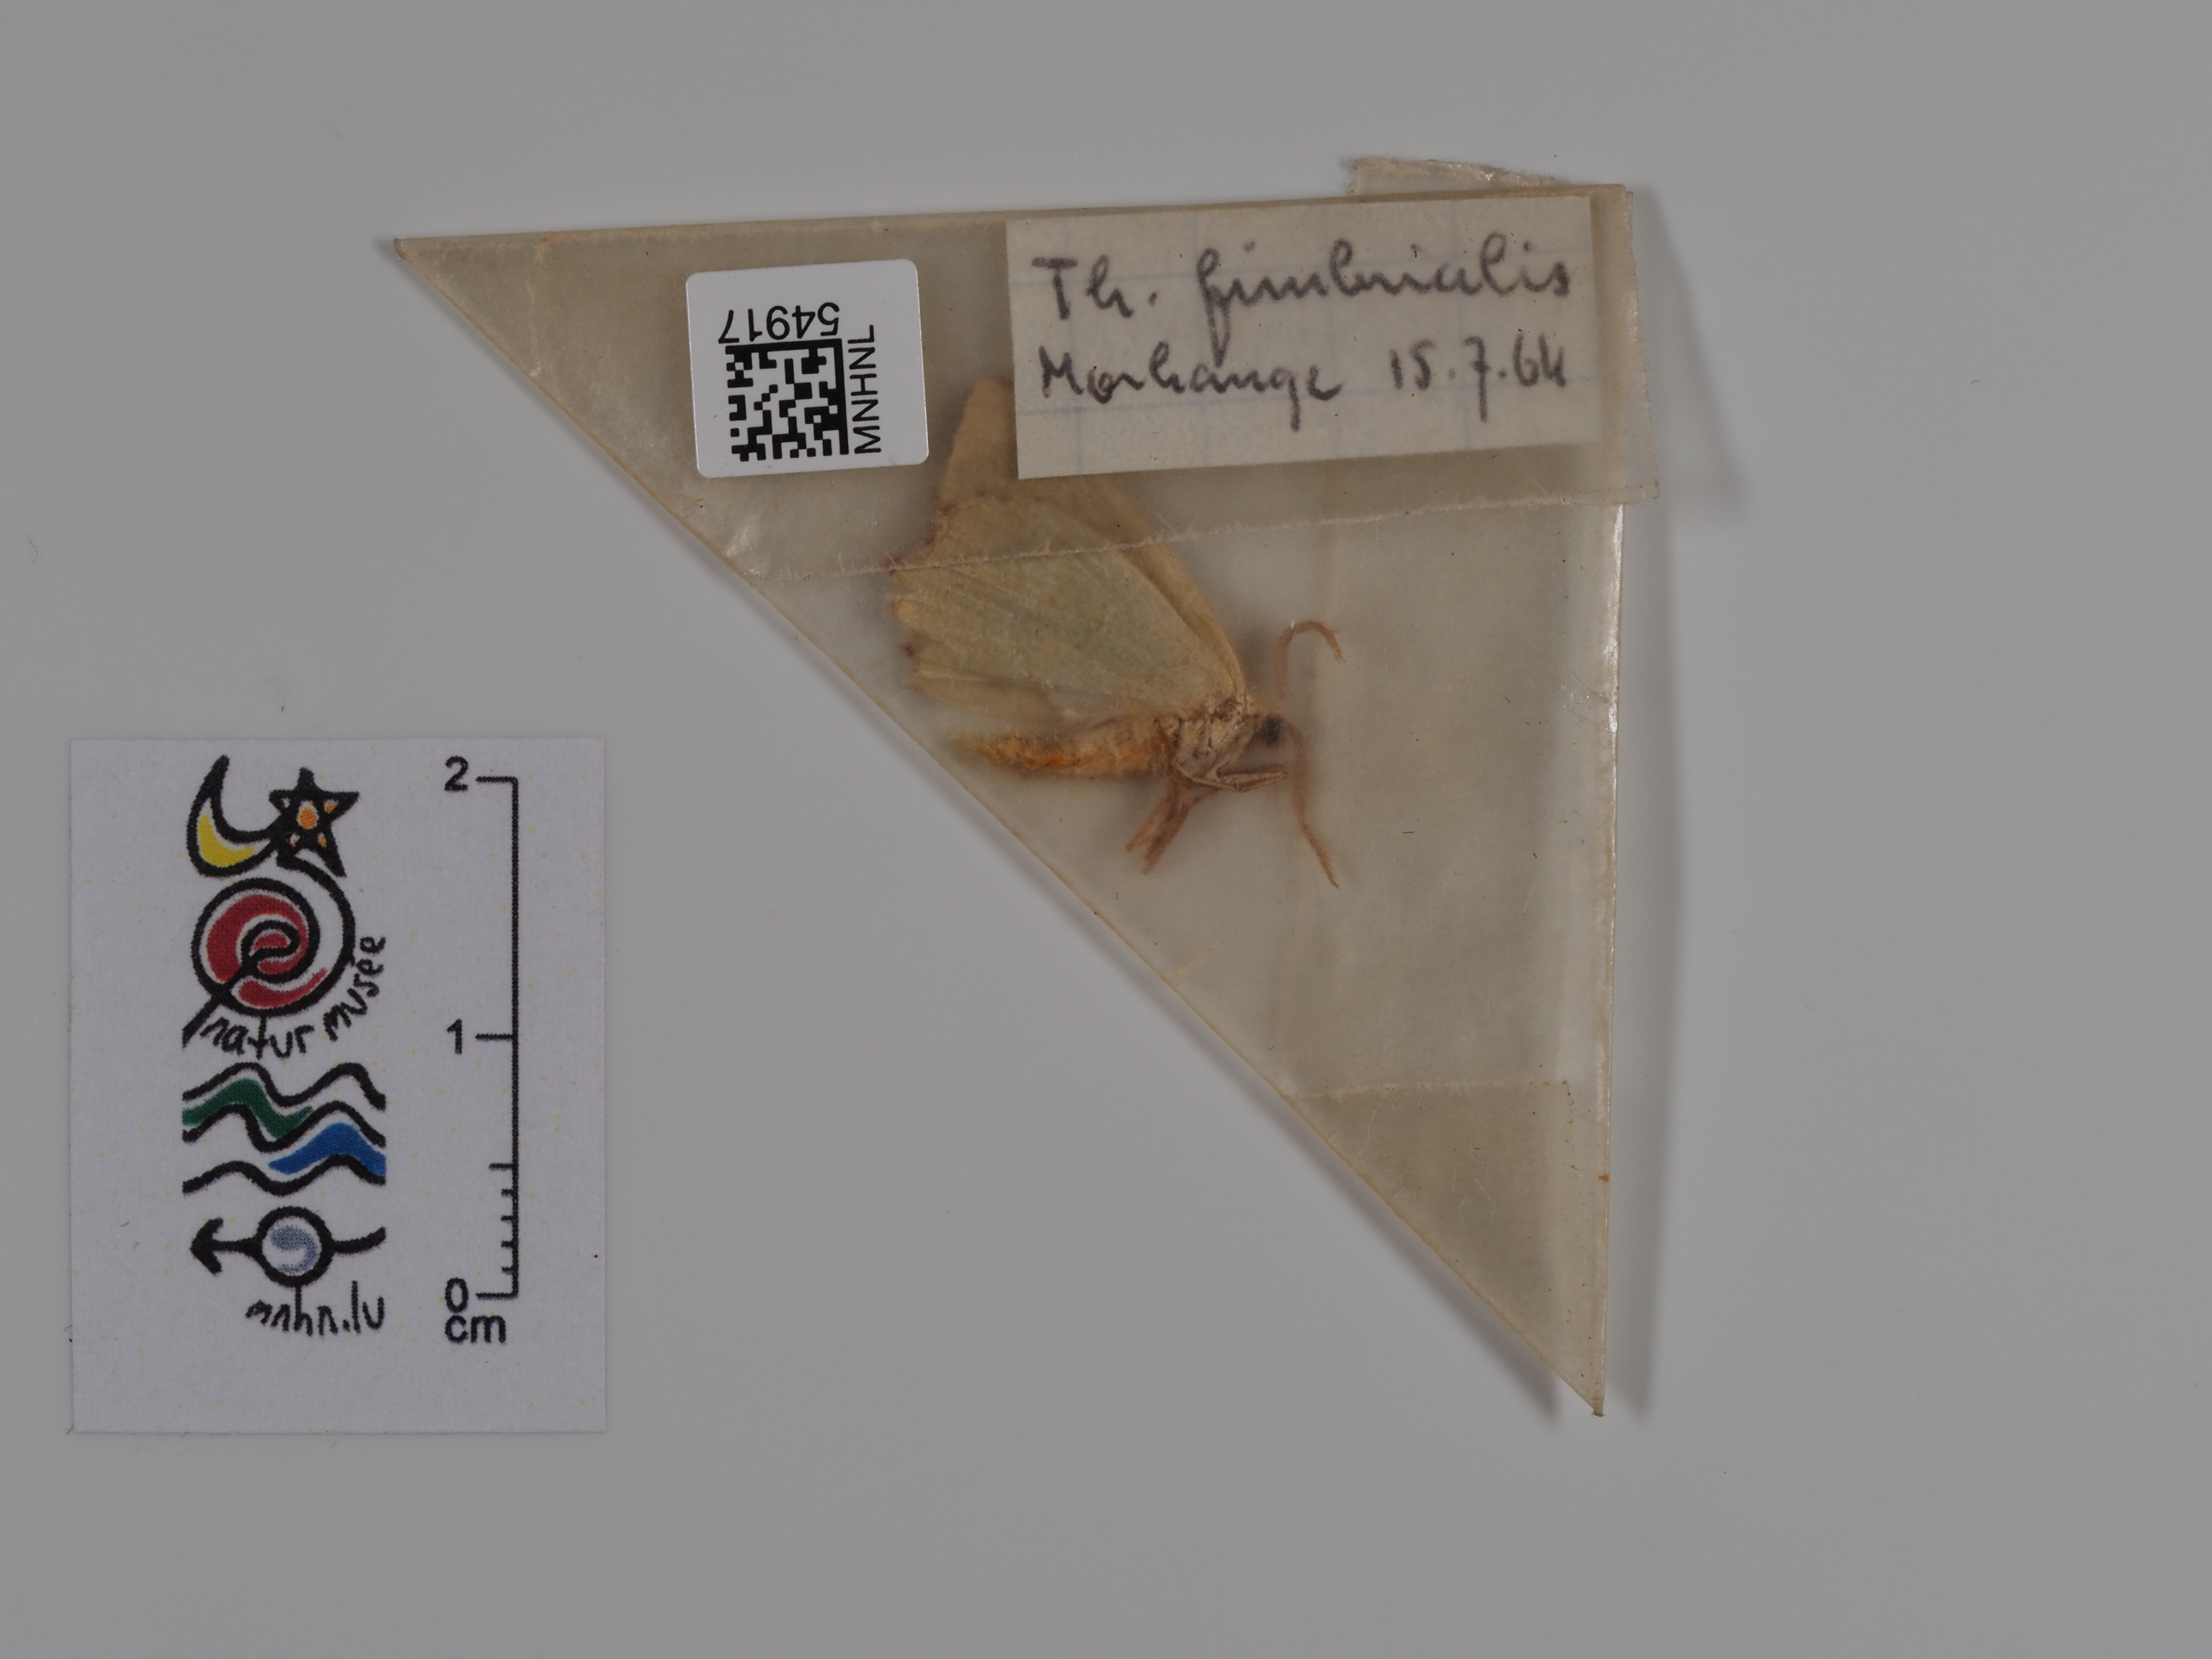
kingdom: Animalia
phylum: Arthropoda
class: Insecta
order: Lepidoptera
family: Geometridae
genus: Thalera
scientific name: Thalera fimbrialis
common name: Sussex emerald
